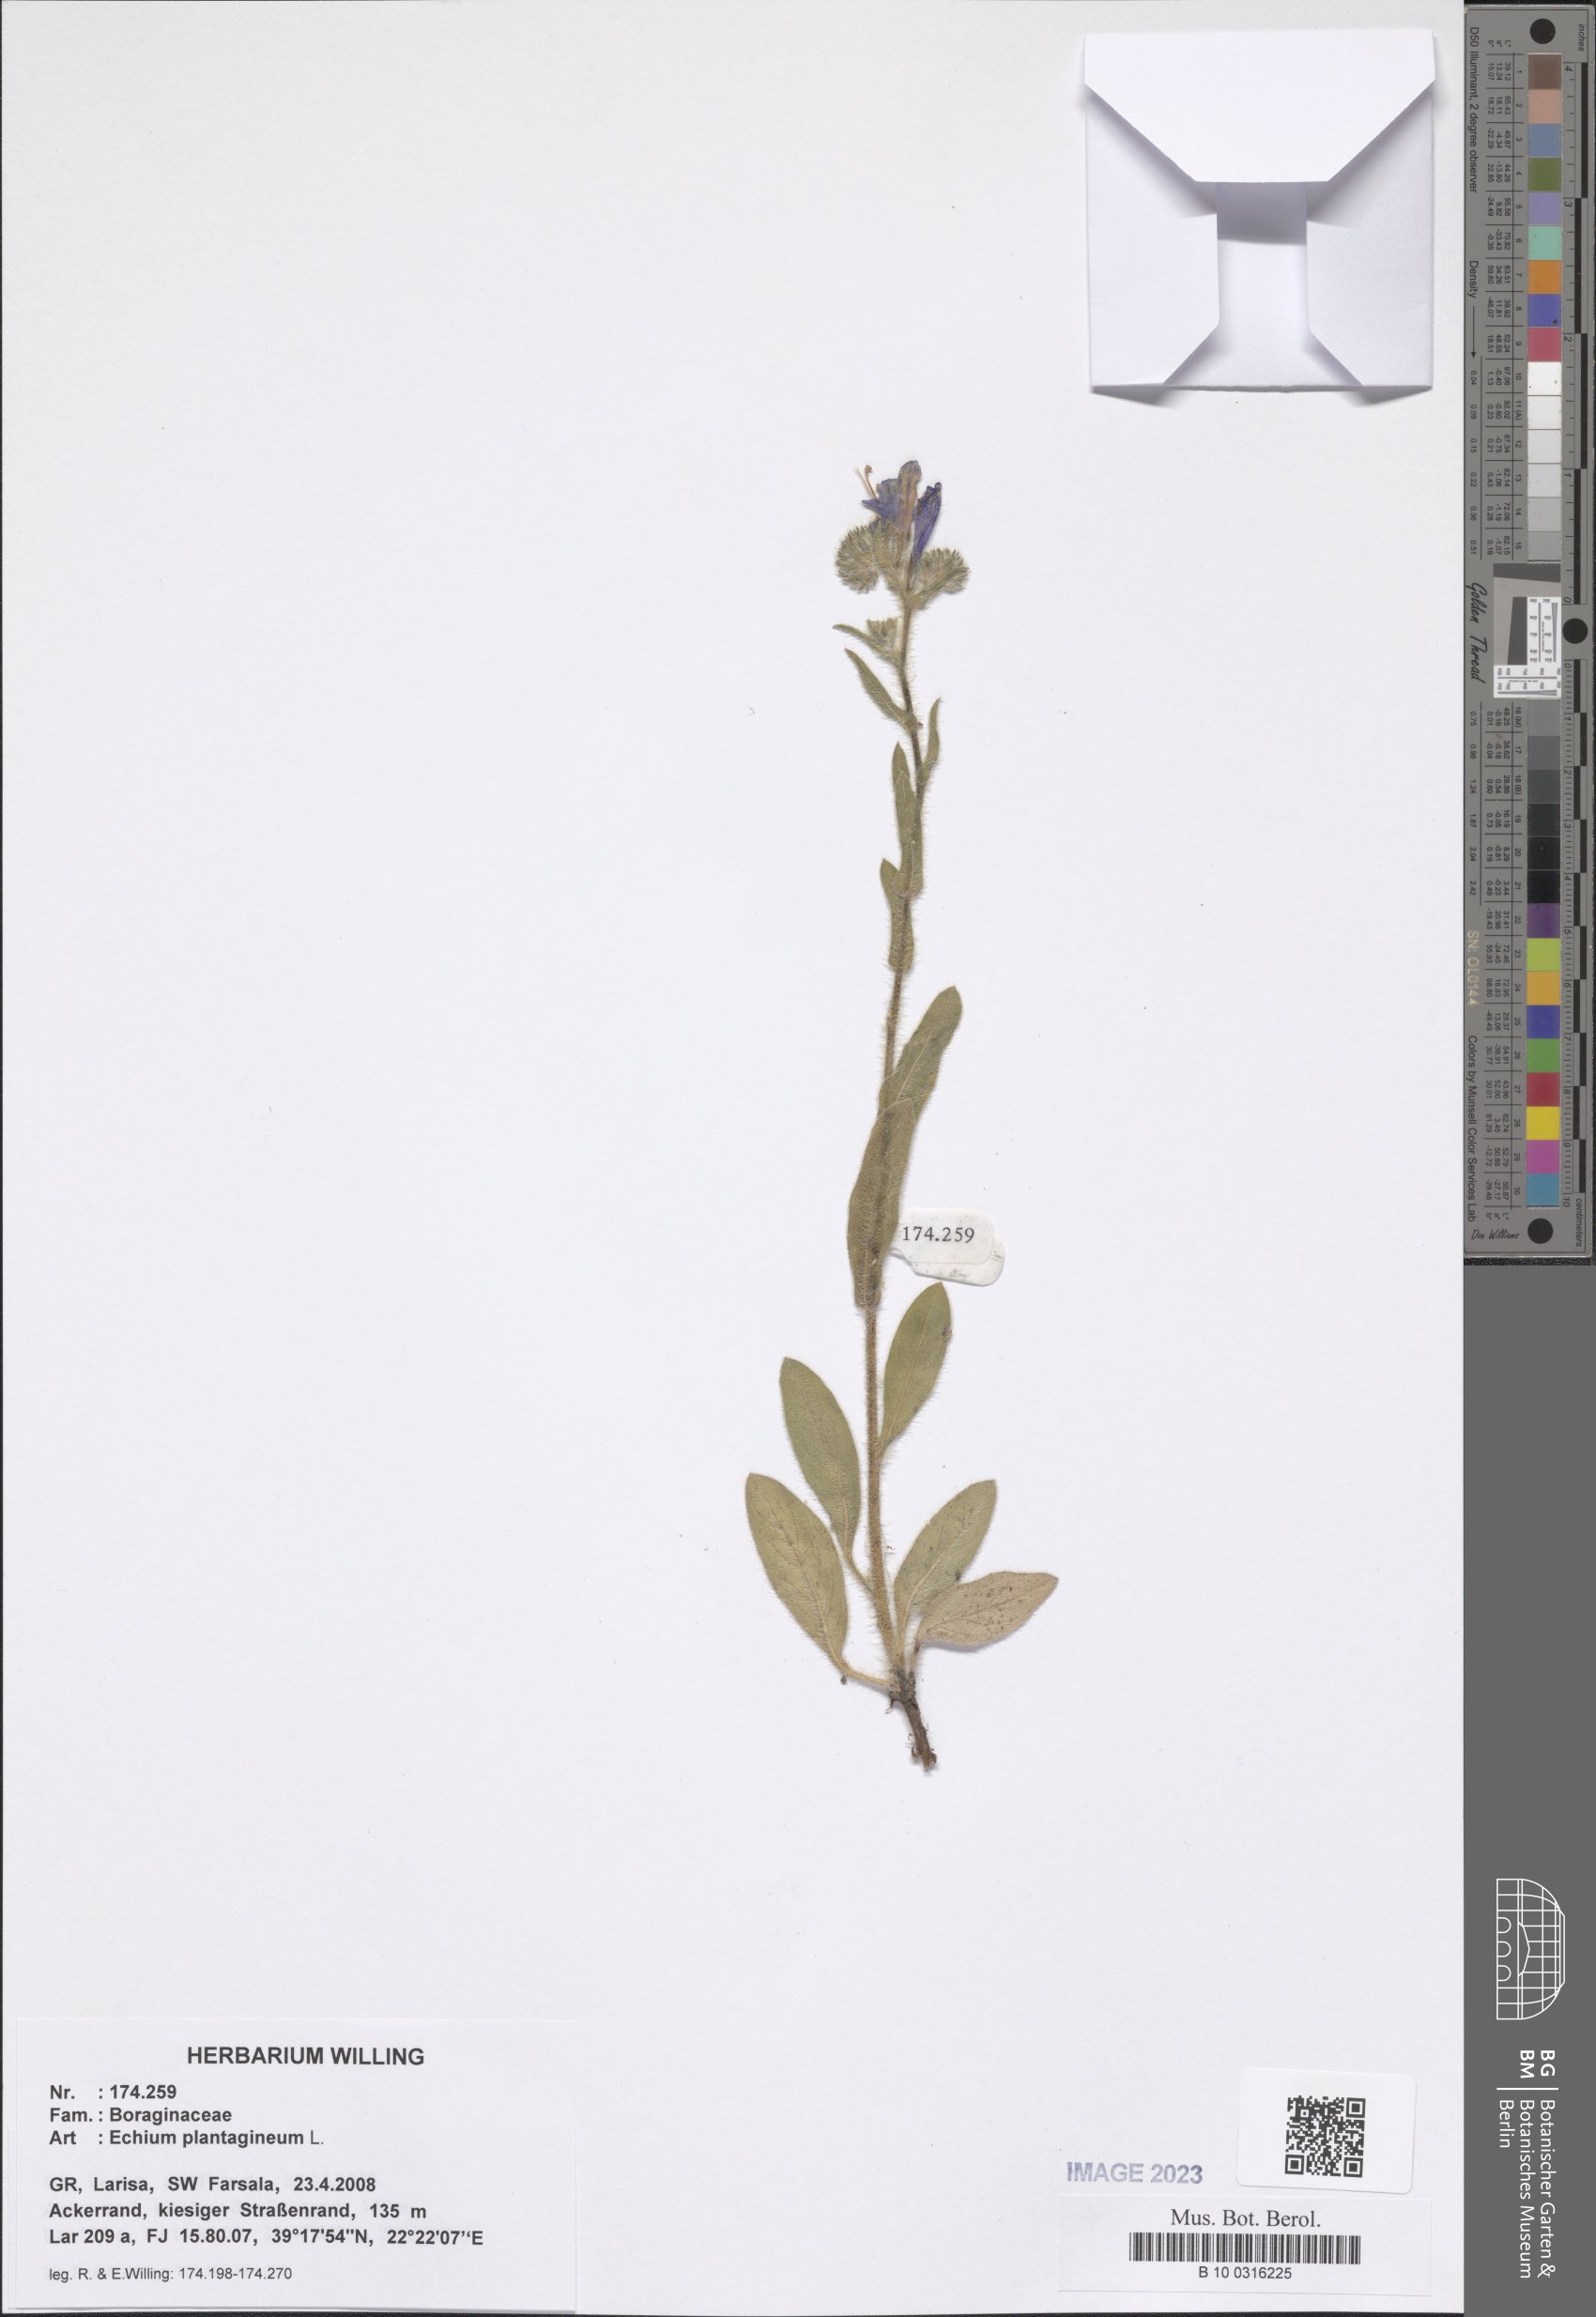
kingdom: Plantae
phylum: Tracheophyta
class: Magnoliopsida
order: Boraginales
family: Boraginaceae
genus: Echium
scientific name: Echium plantagineum
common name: Purple viper's-bugloss
